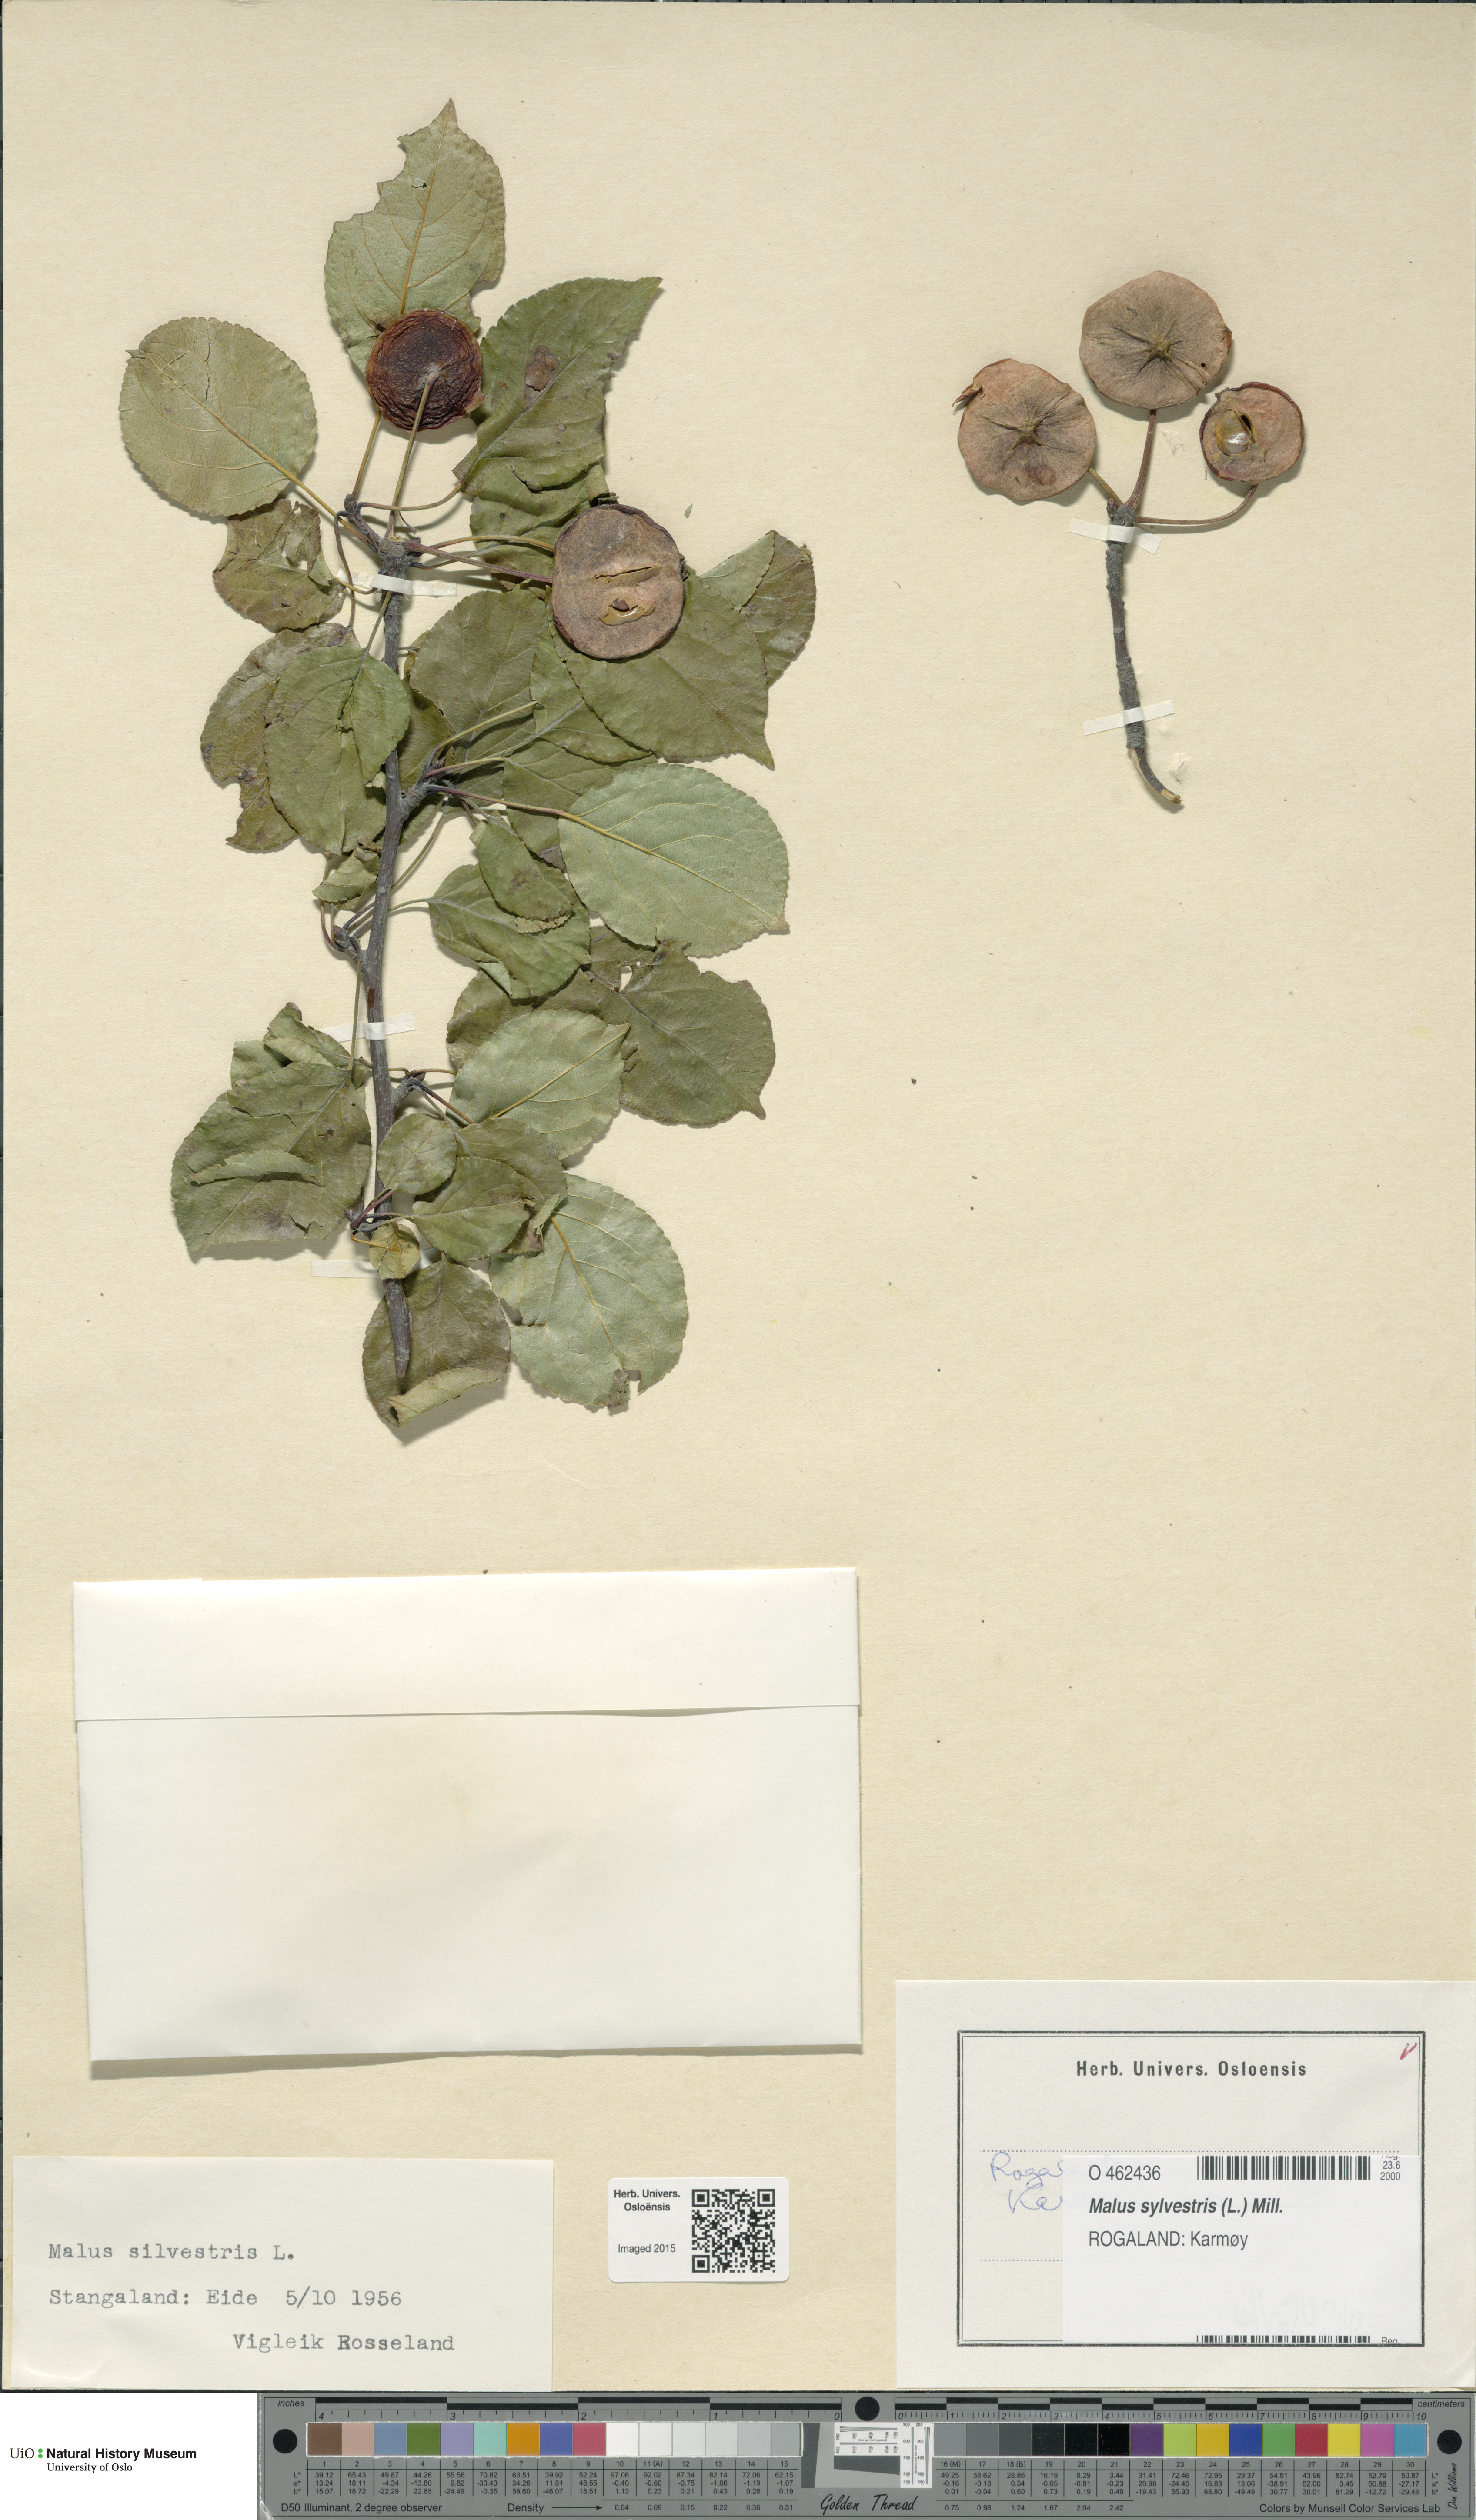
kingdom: Plantae
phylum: Tracheophyta
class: Magnoliopsida
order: Rosales
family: Rosaceae
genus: Malus
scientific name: Malus sylvestris
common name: Crab apple
